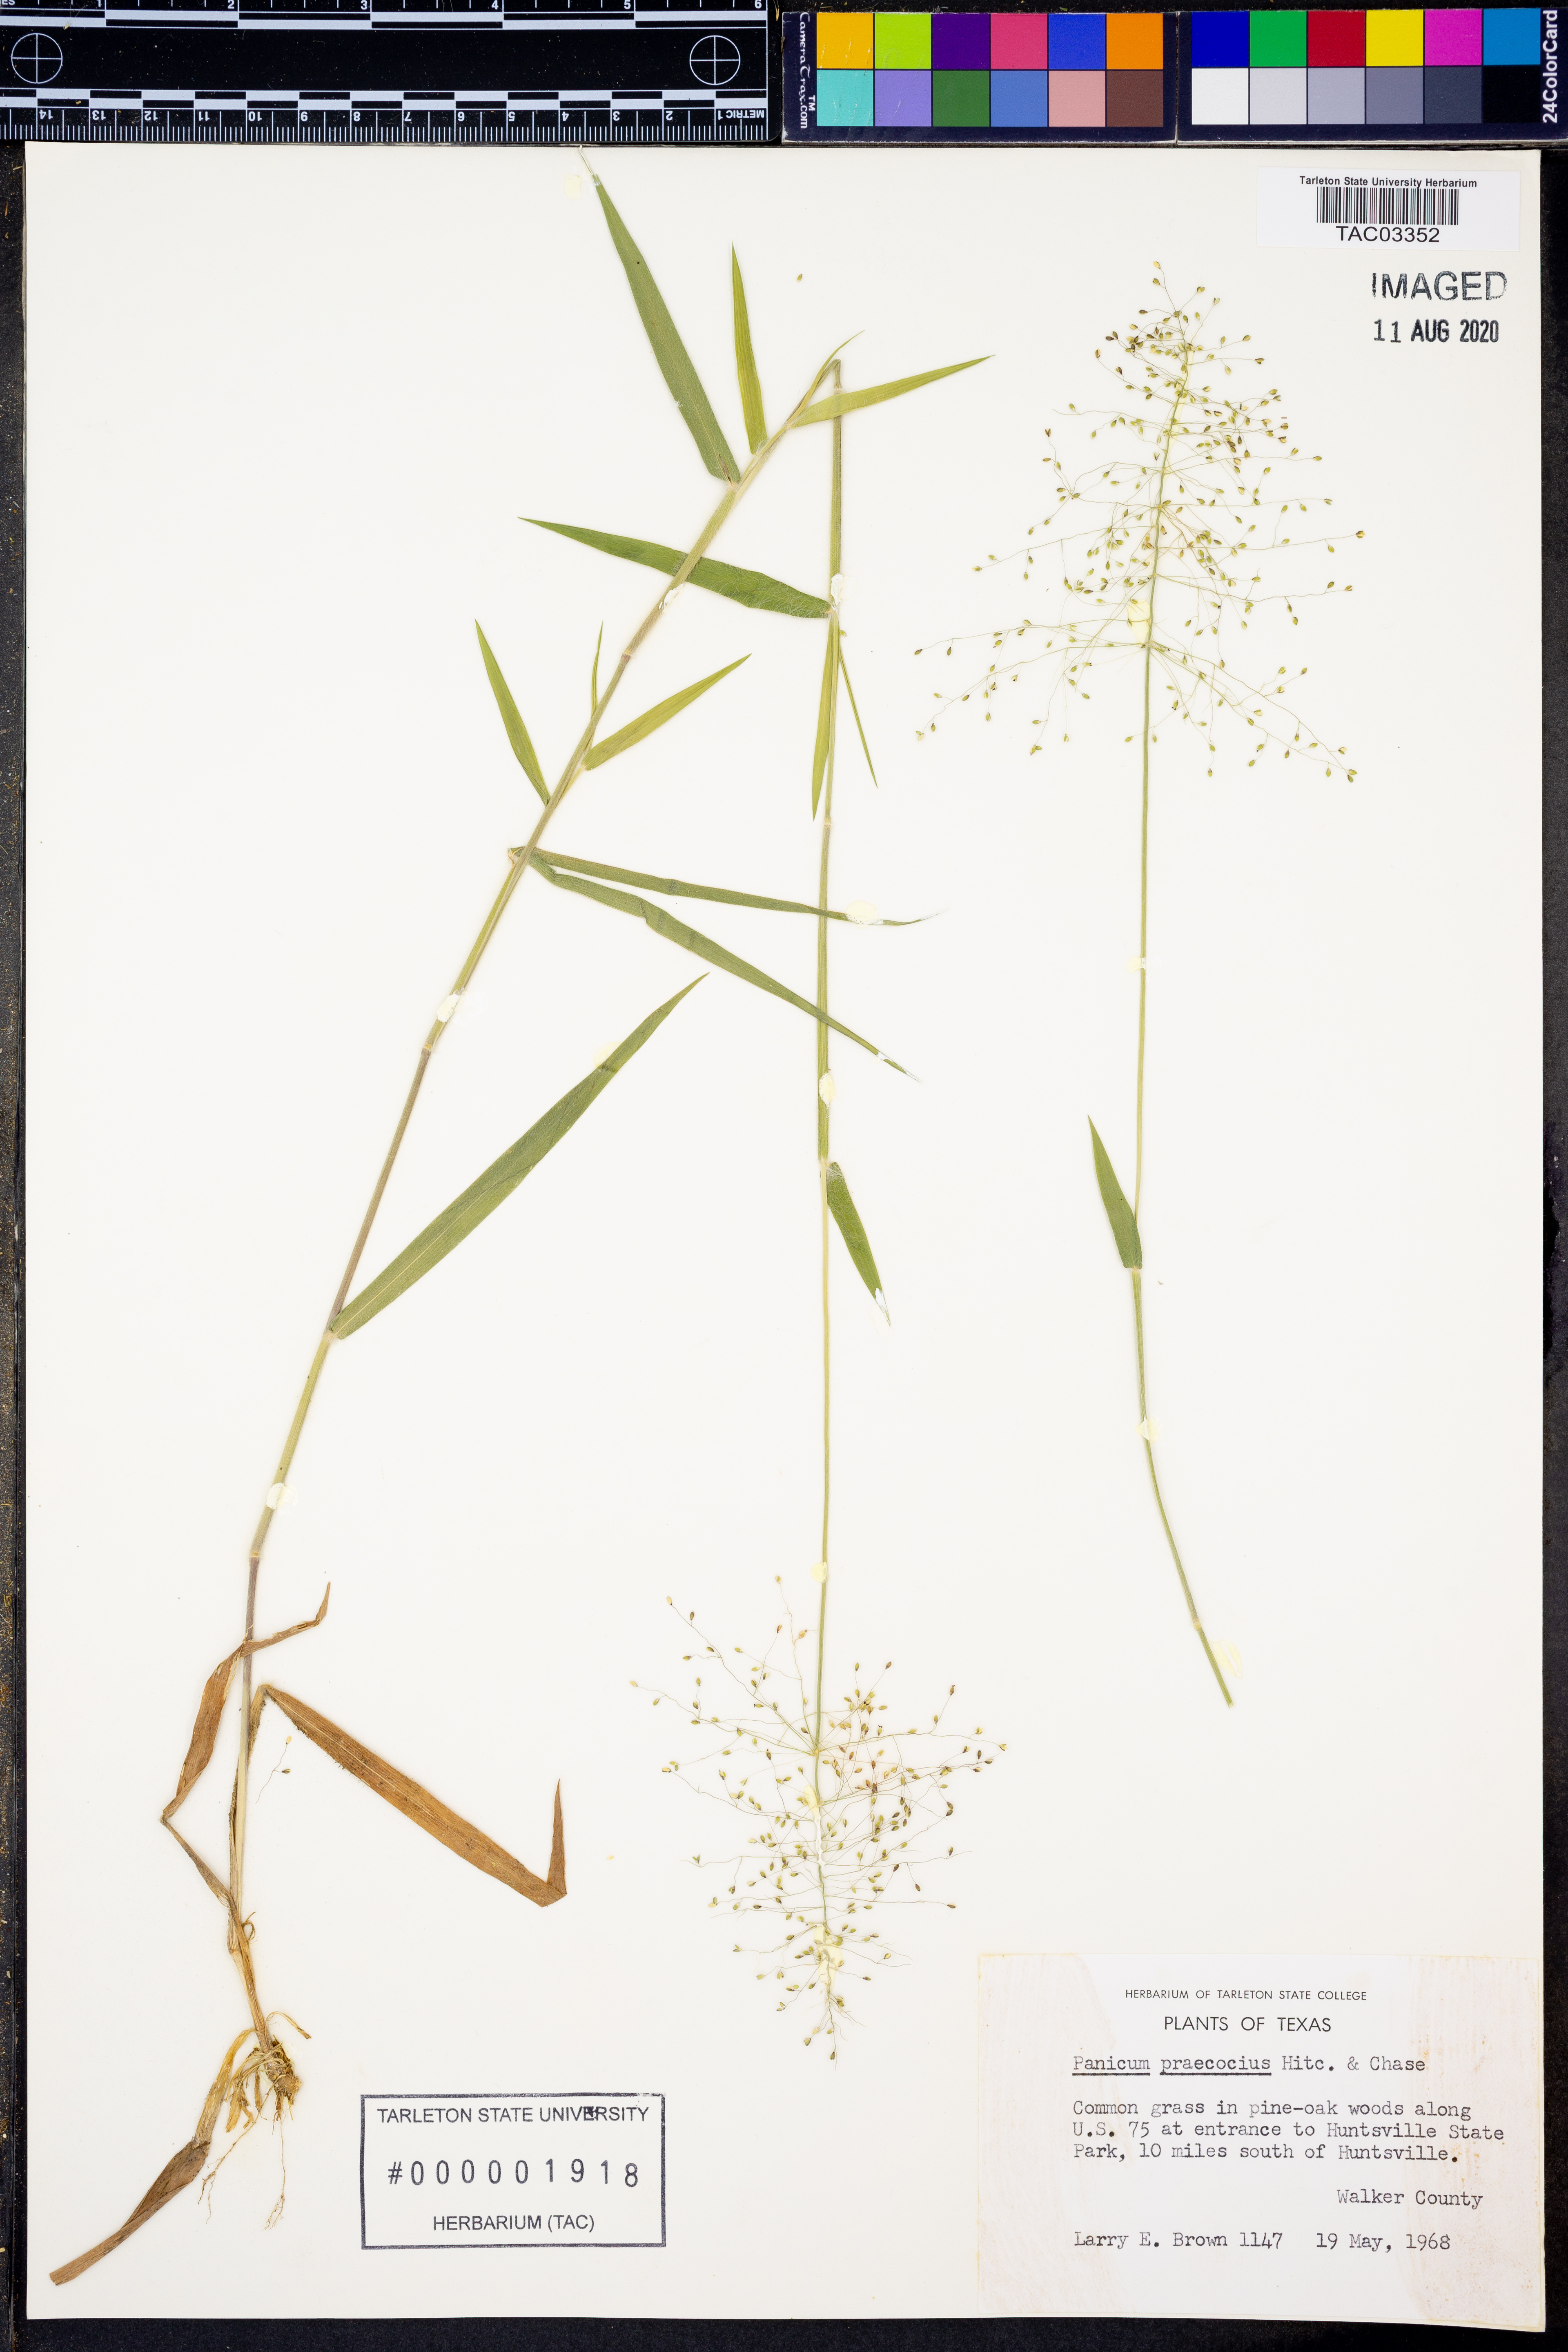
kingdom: Plantae
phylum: Tracheophyta
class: Liliopsida
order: Poales
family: Poaceae
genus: Dichanthelium
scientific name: Dichanthelium praecocius
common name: Early-branching panicgrass
